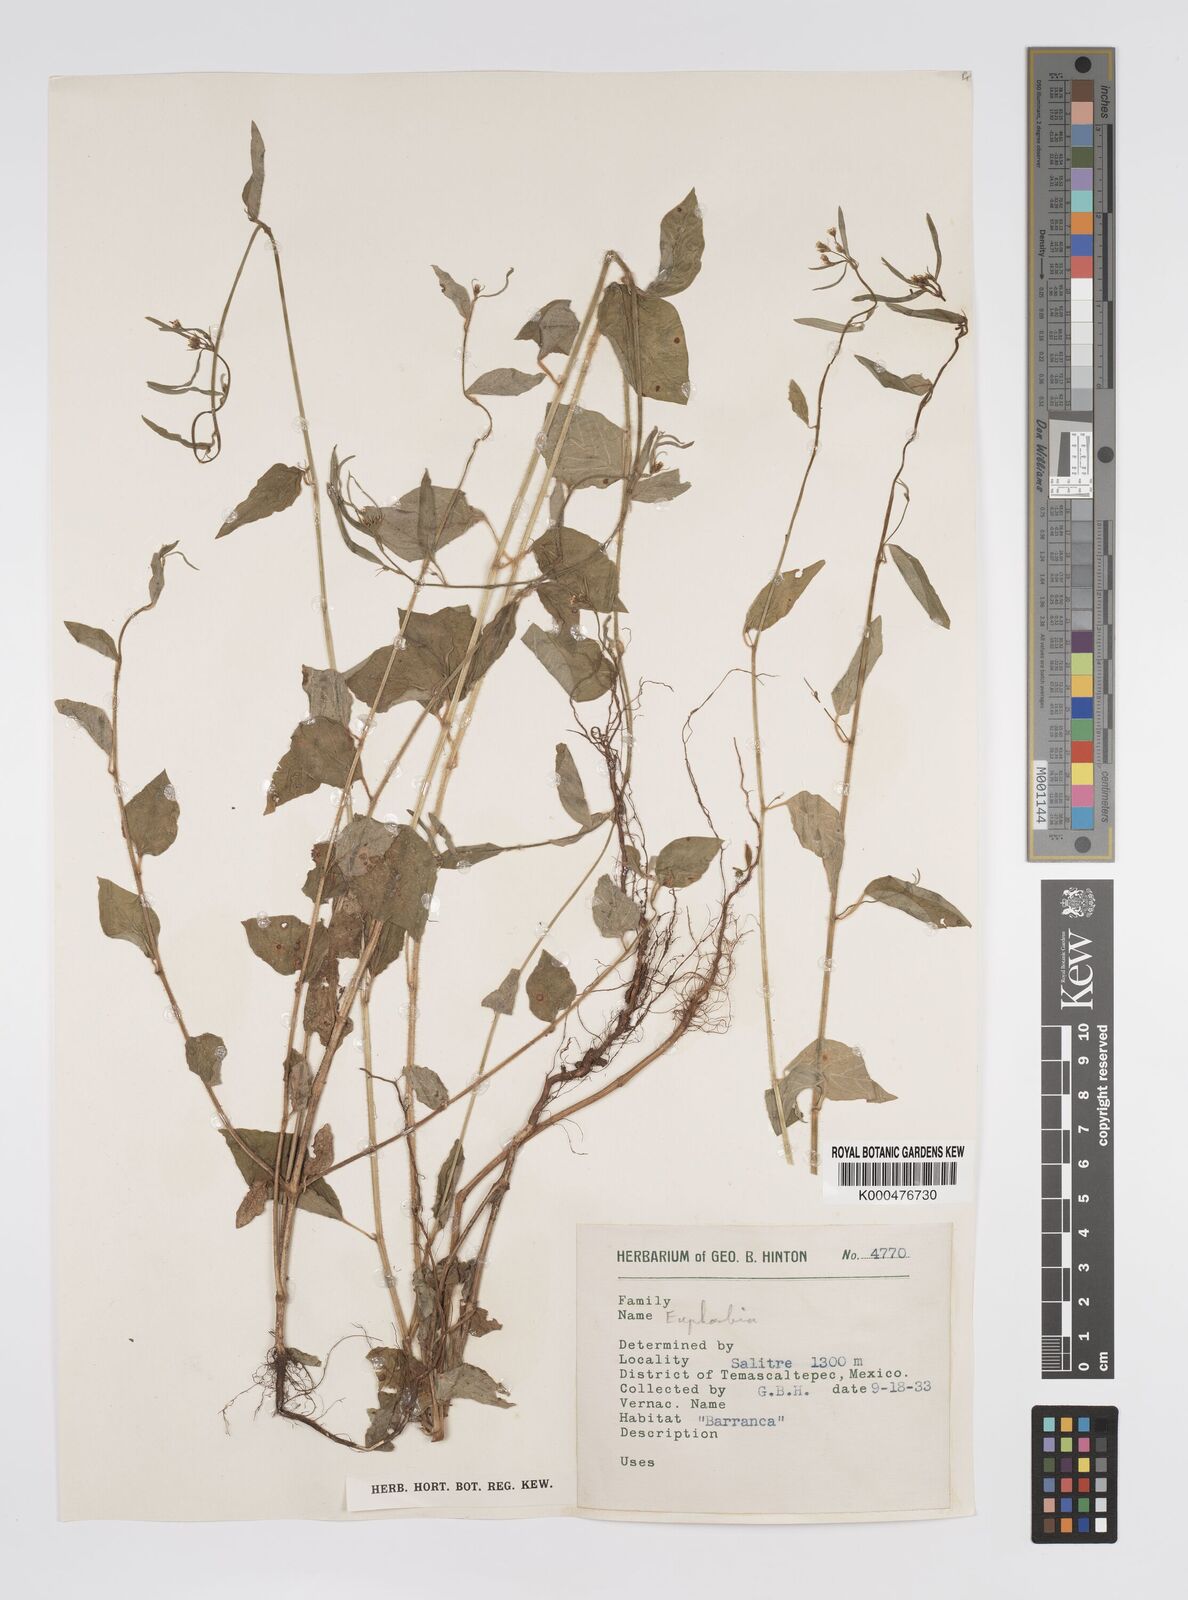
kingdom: Plantae
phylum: Tracheophyta
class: Magnoliopsida
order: Malpighiales
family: Euphorbiaceae
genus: Euphorbia
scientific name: Euphorbia
